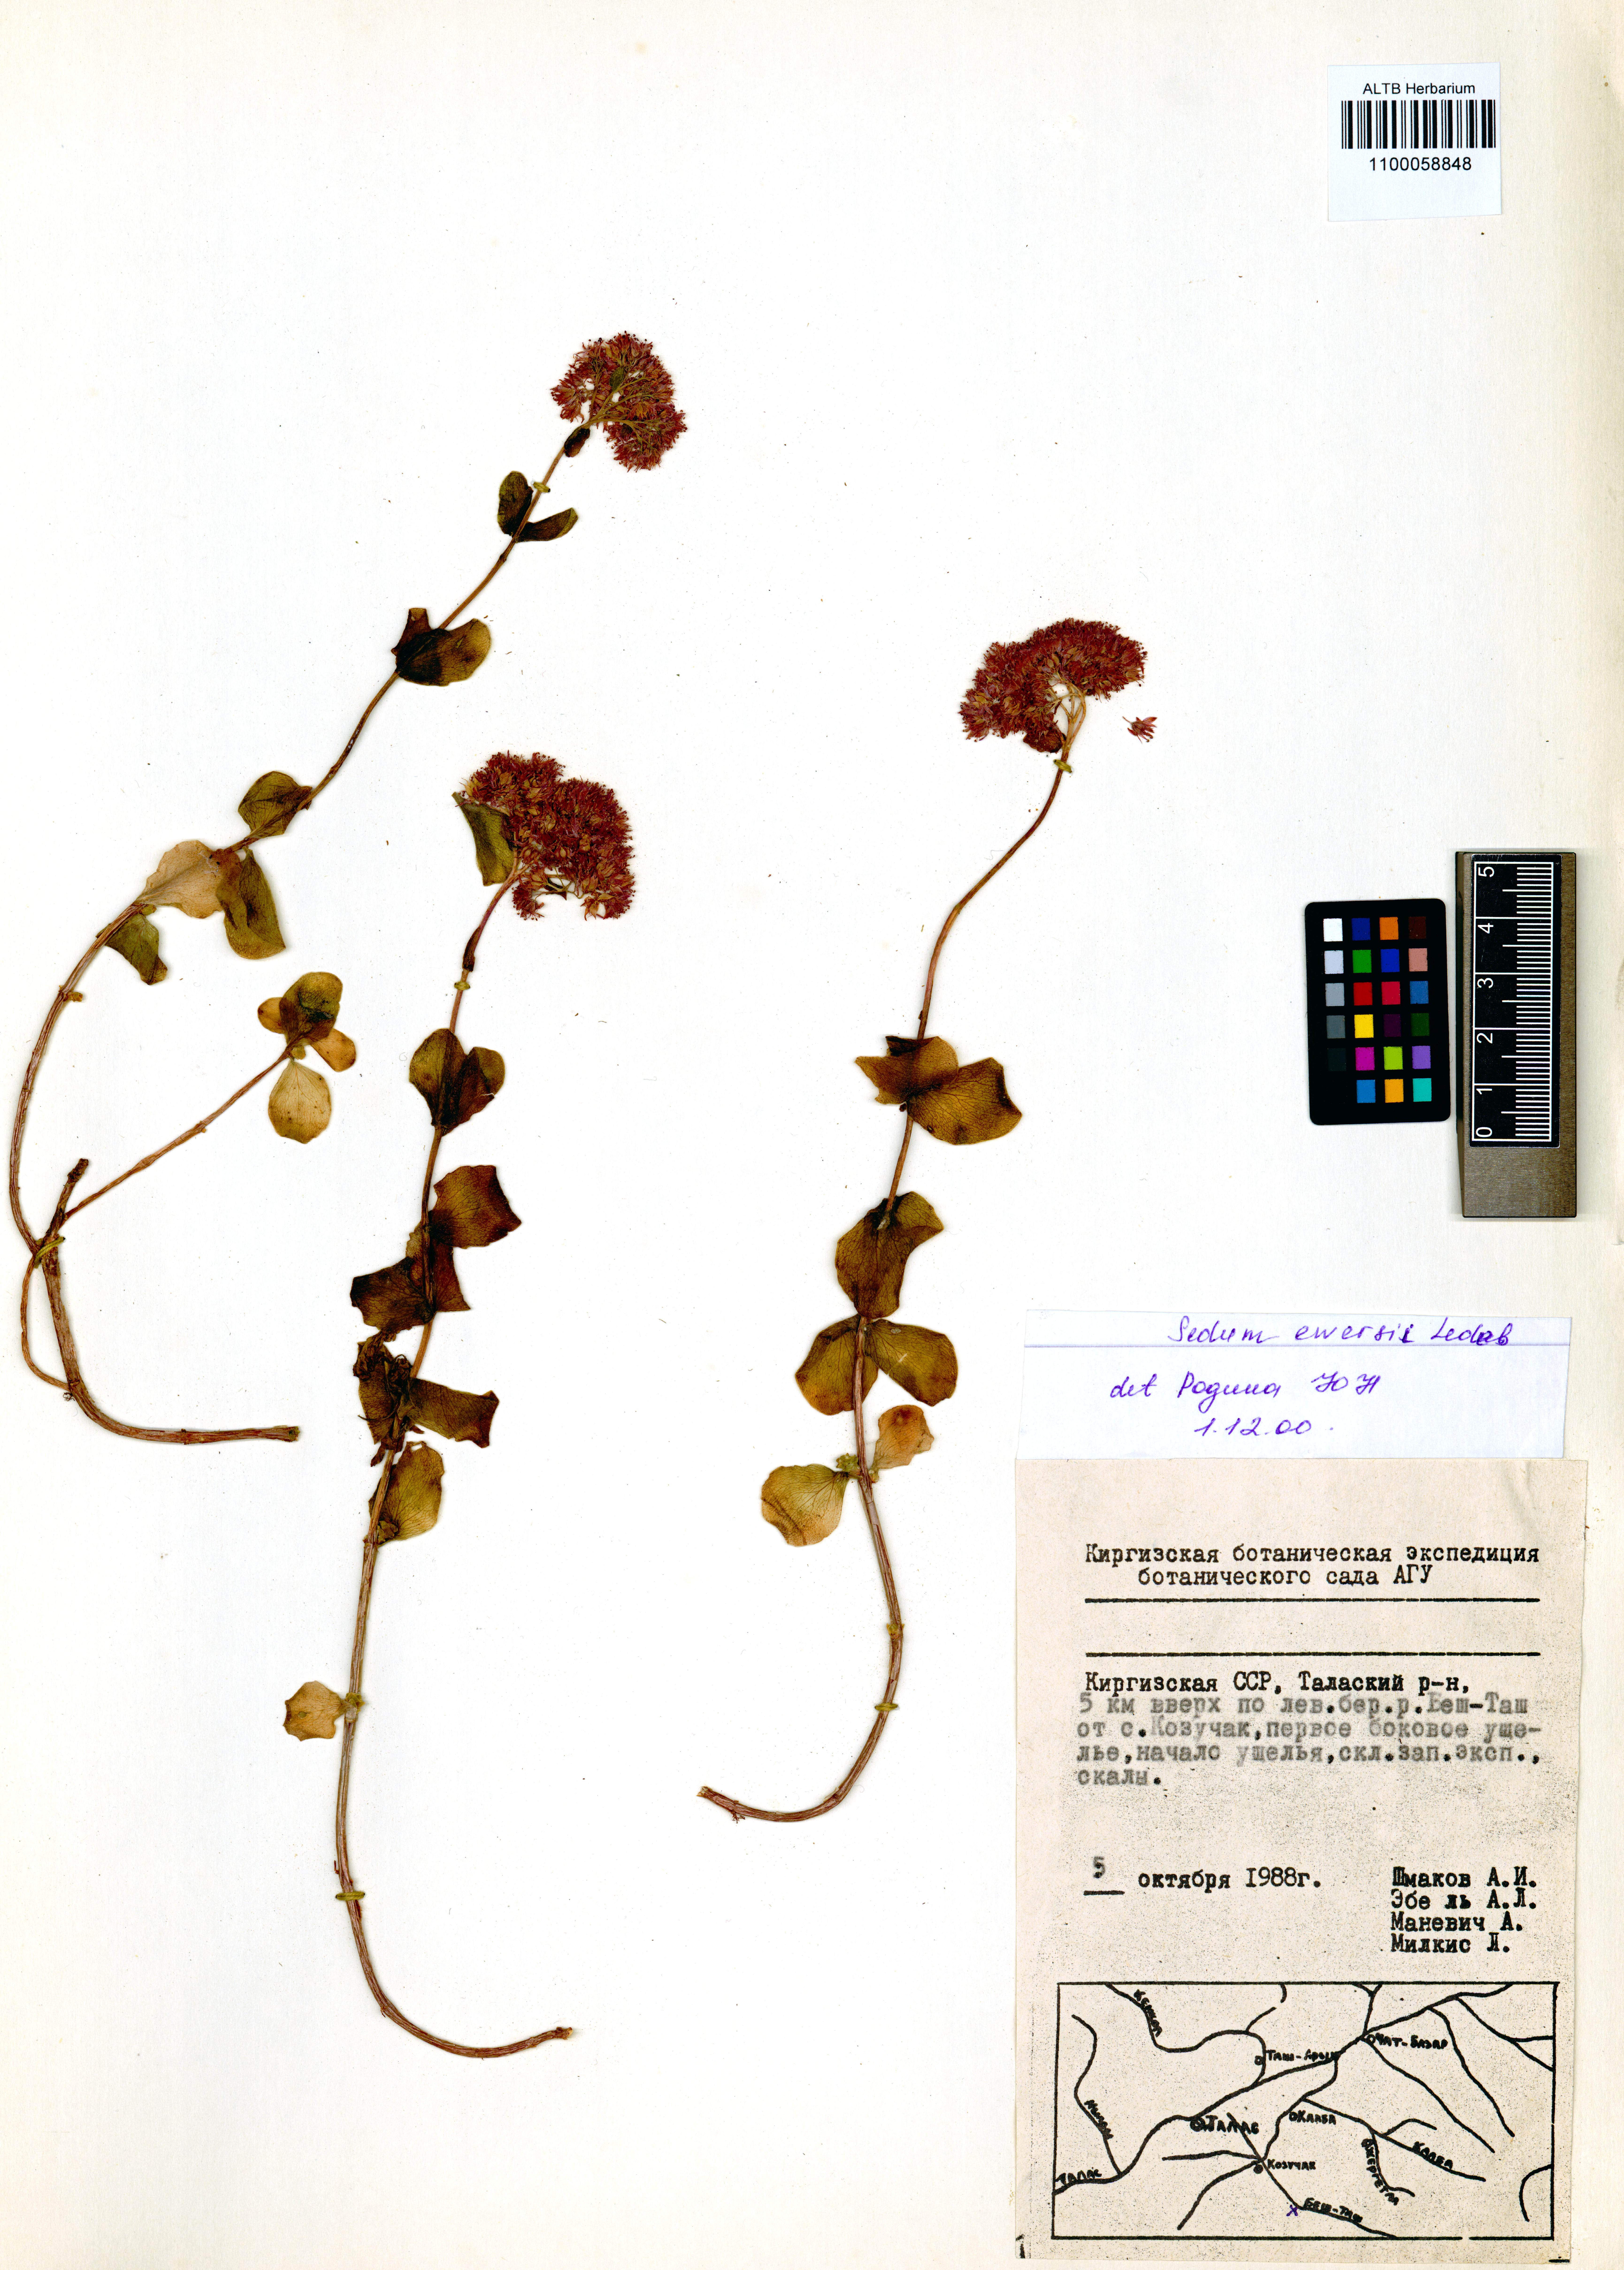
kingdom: Plantae
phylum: Tracheophyta
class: Magnoliopsida
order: Saxifragales
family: Crassulaceae
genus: Hylotelephium
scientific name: Hylotelephium ewersii
